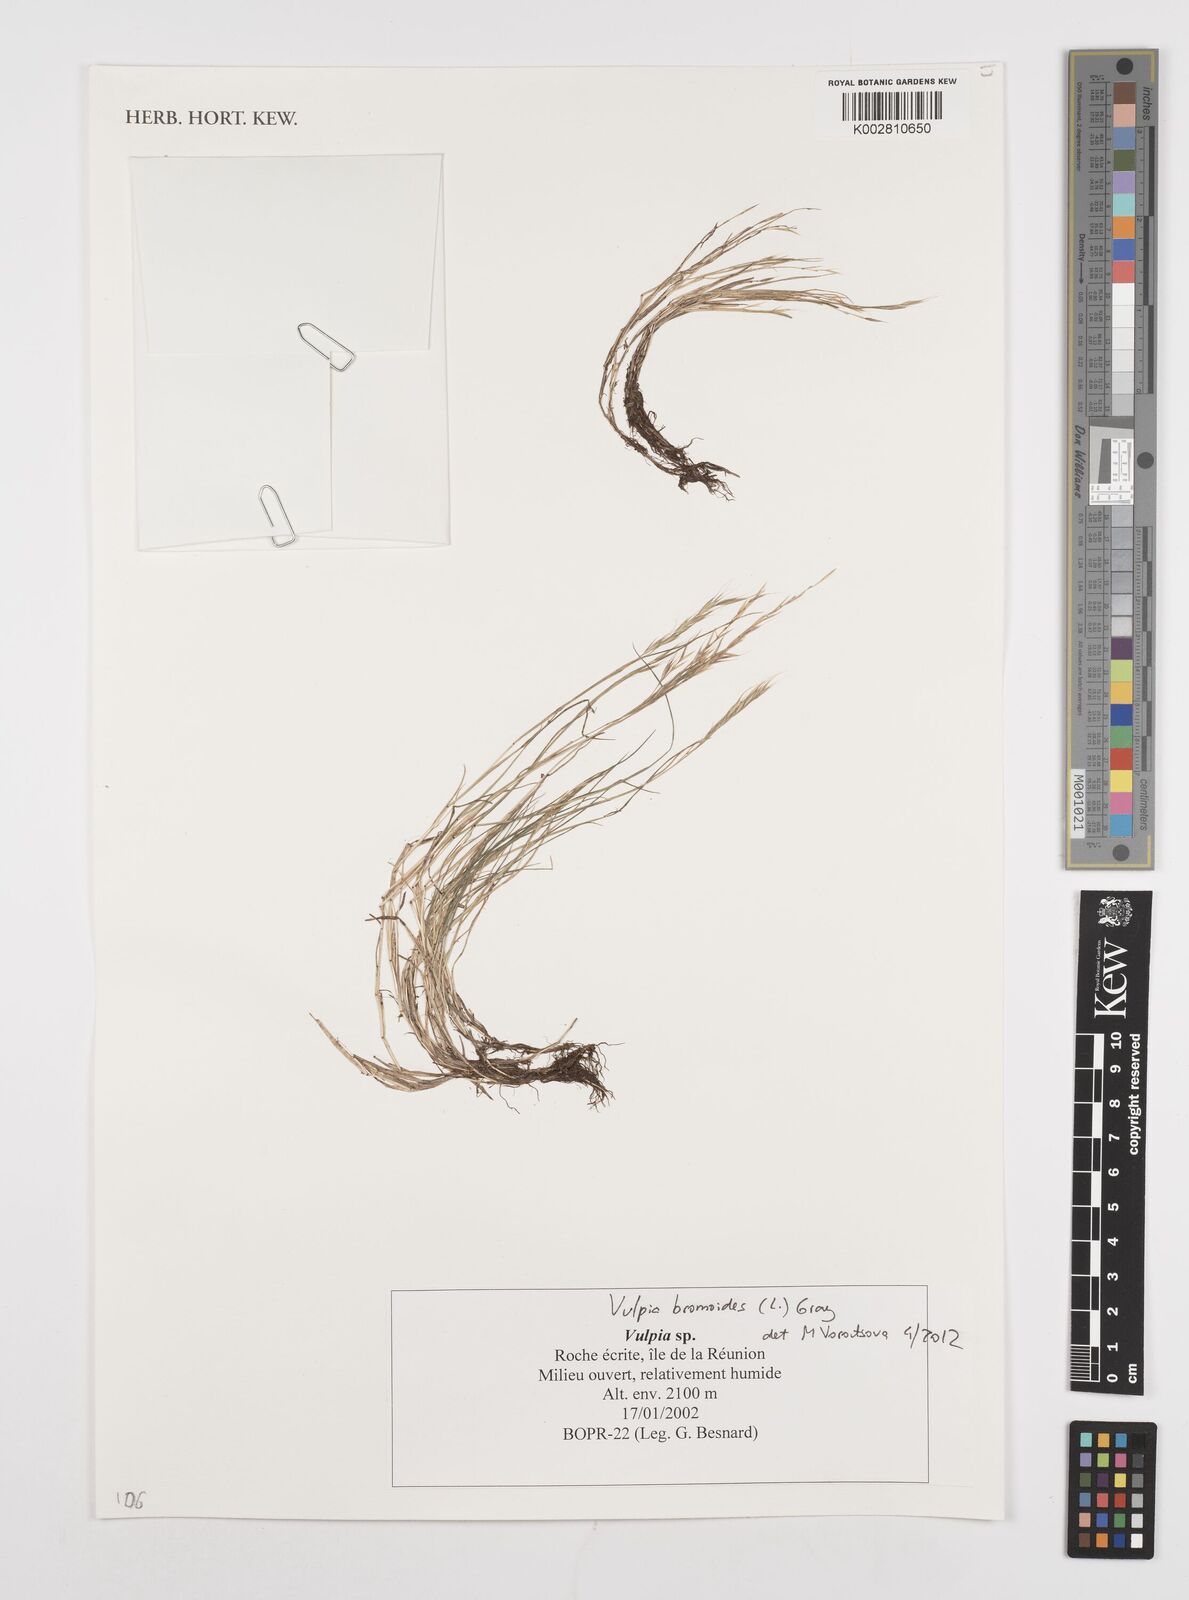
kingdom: Plantae
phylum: Tracheophyta
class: Liliopsida
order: Poales
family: Poaceae
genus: Festuca
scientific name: Festuca bromoides
